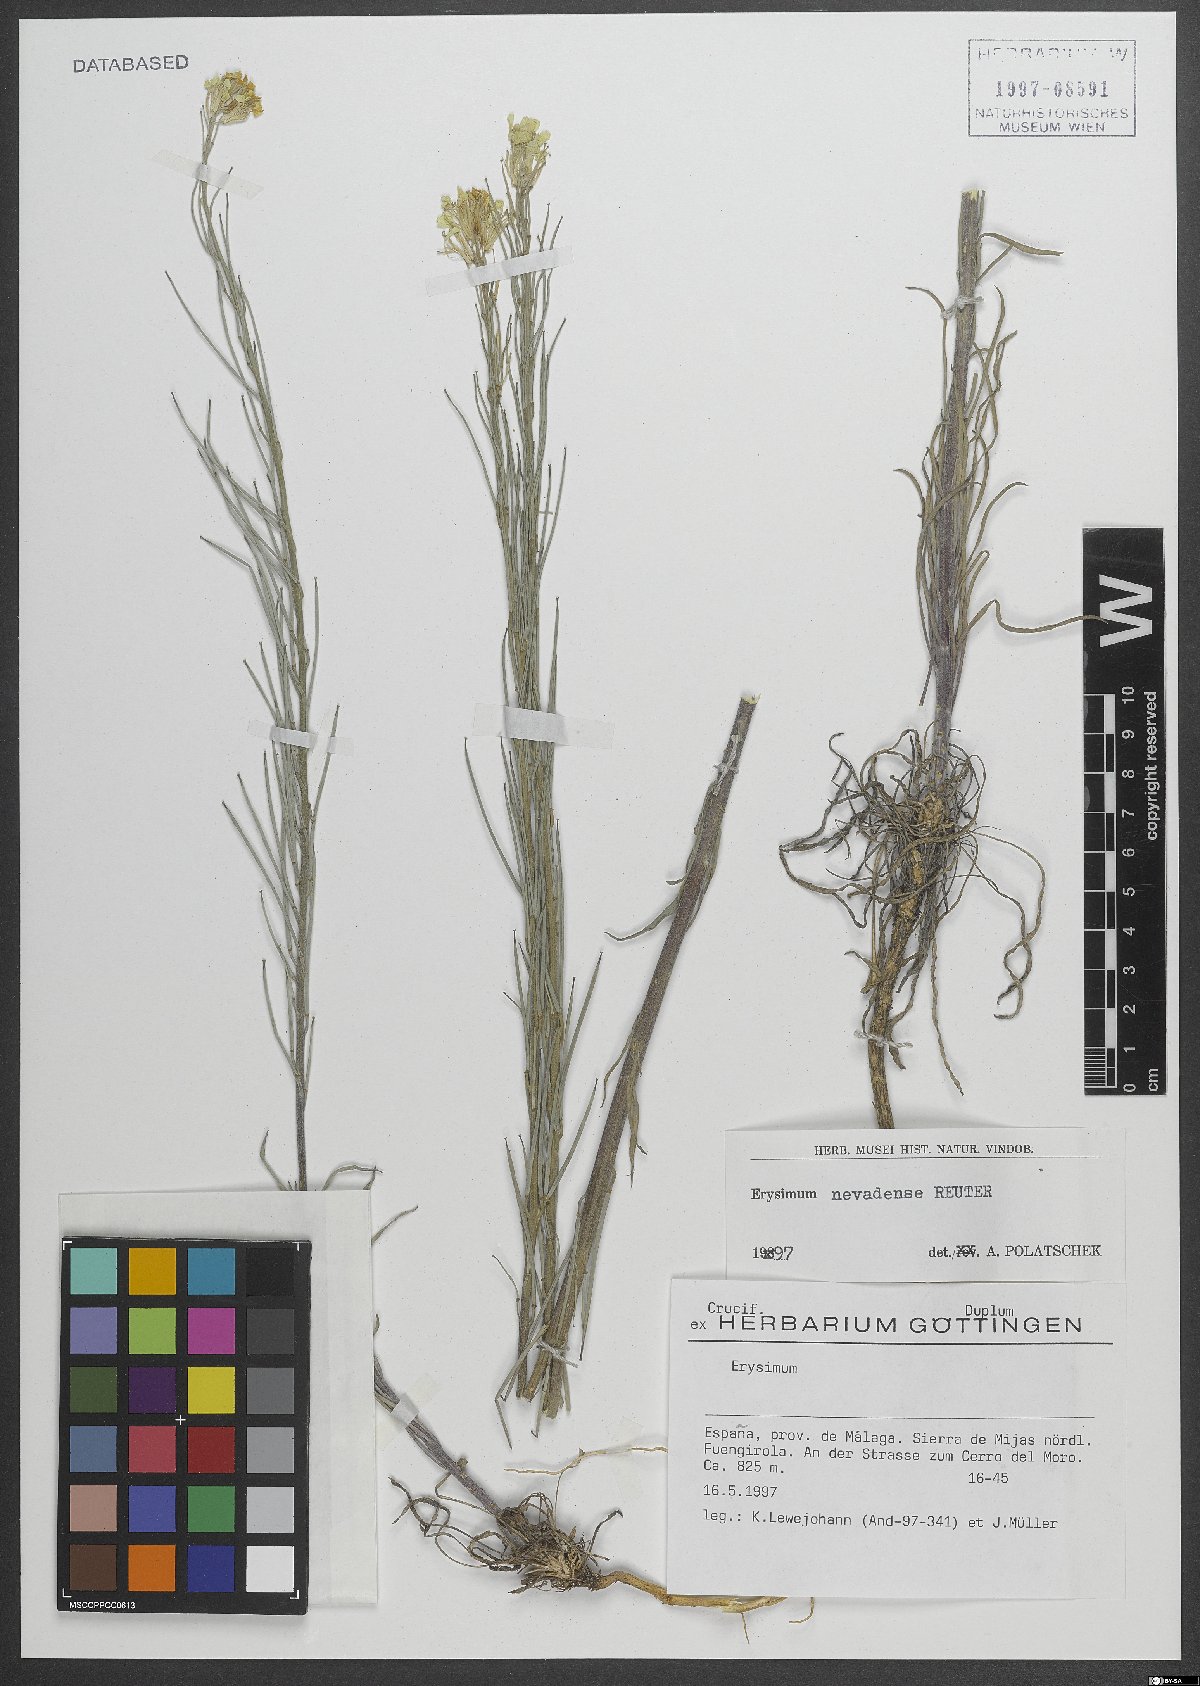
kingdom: Plantae
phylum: Tracheophyta
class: Magnoliopsida
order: Brassicales
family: Brassicaceae
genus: Erysimum
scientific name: Erysimum nevadense
